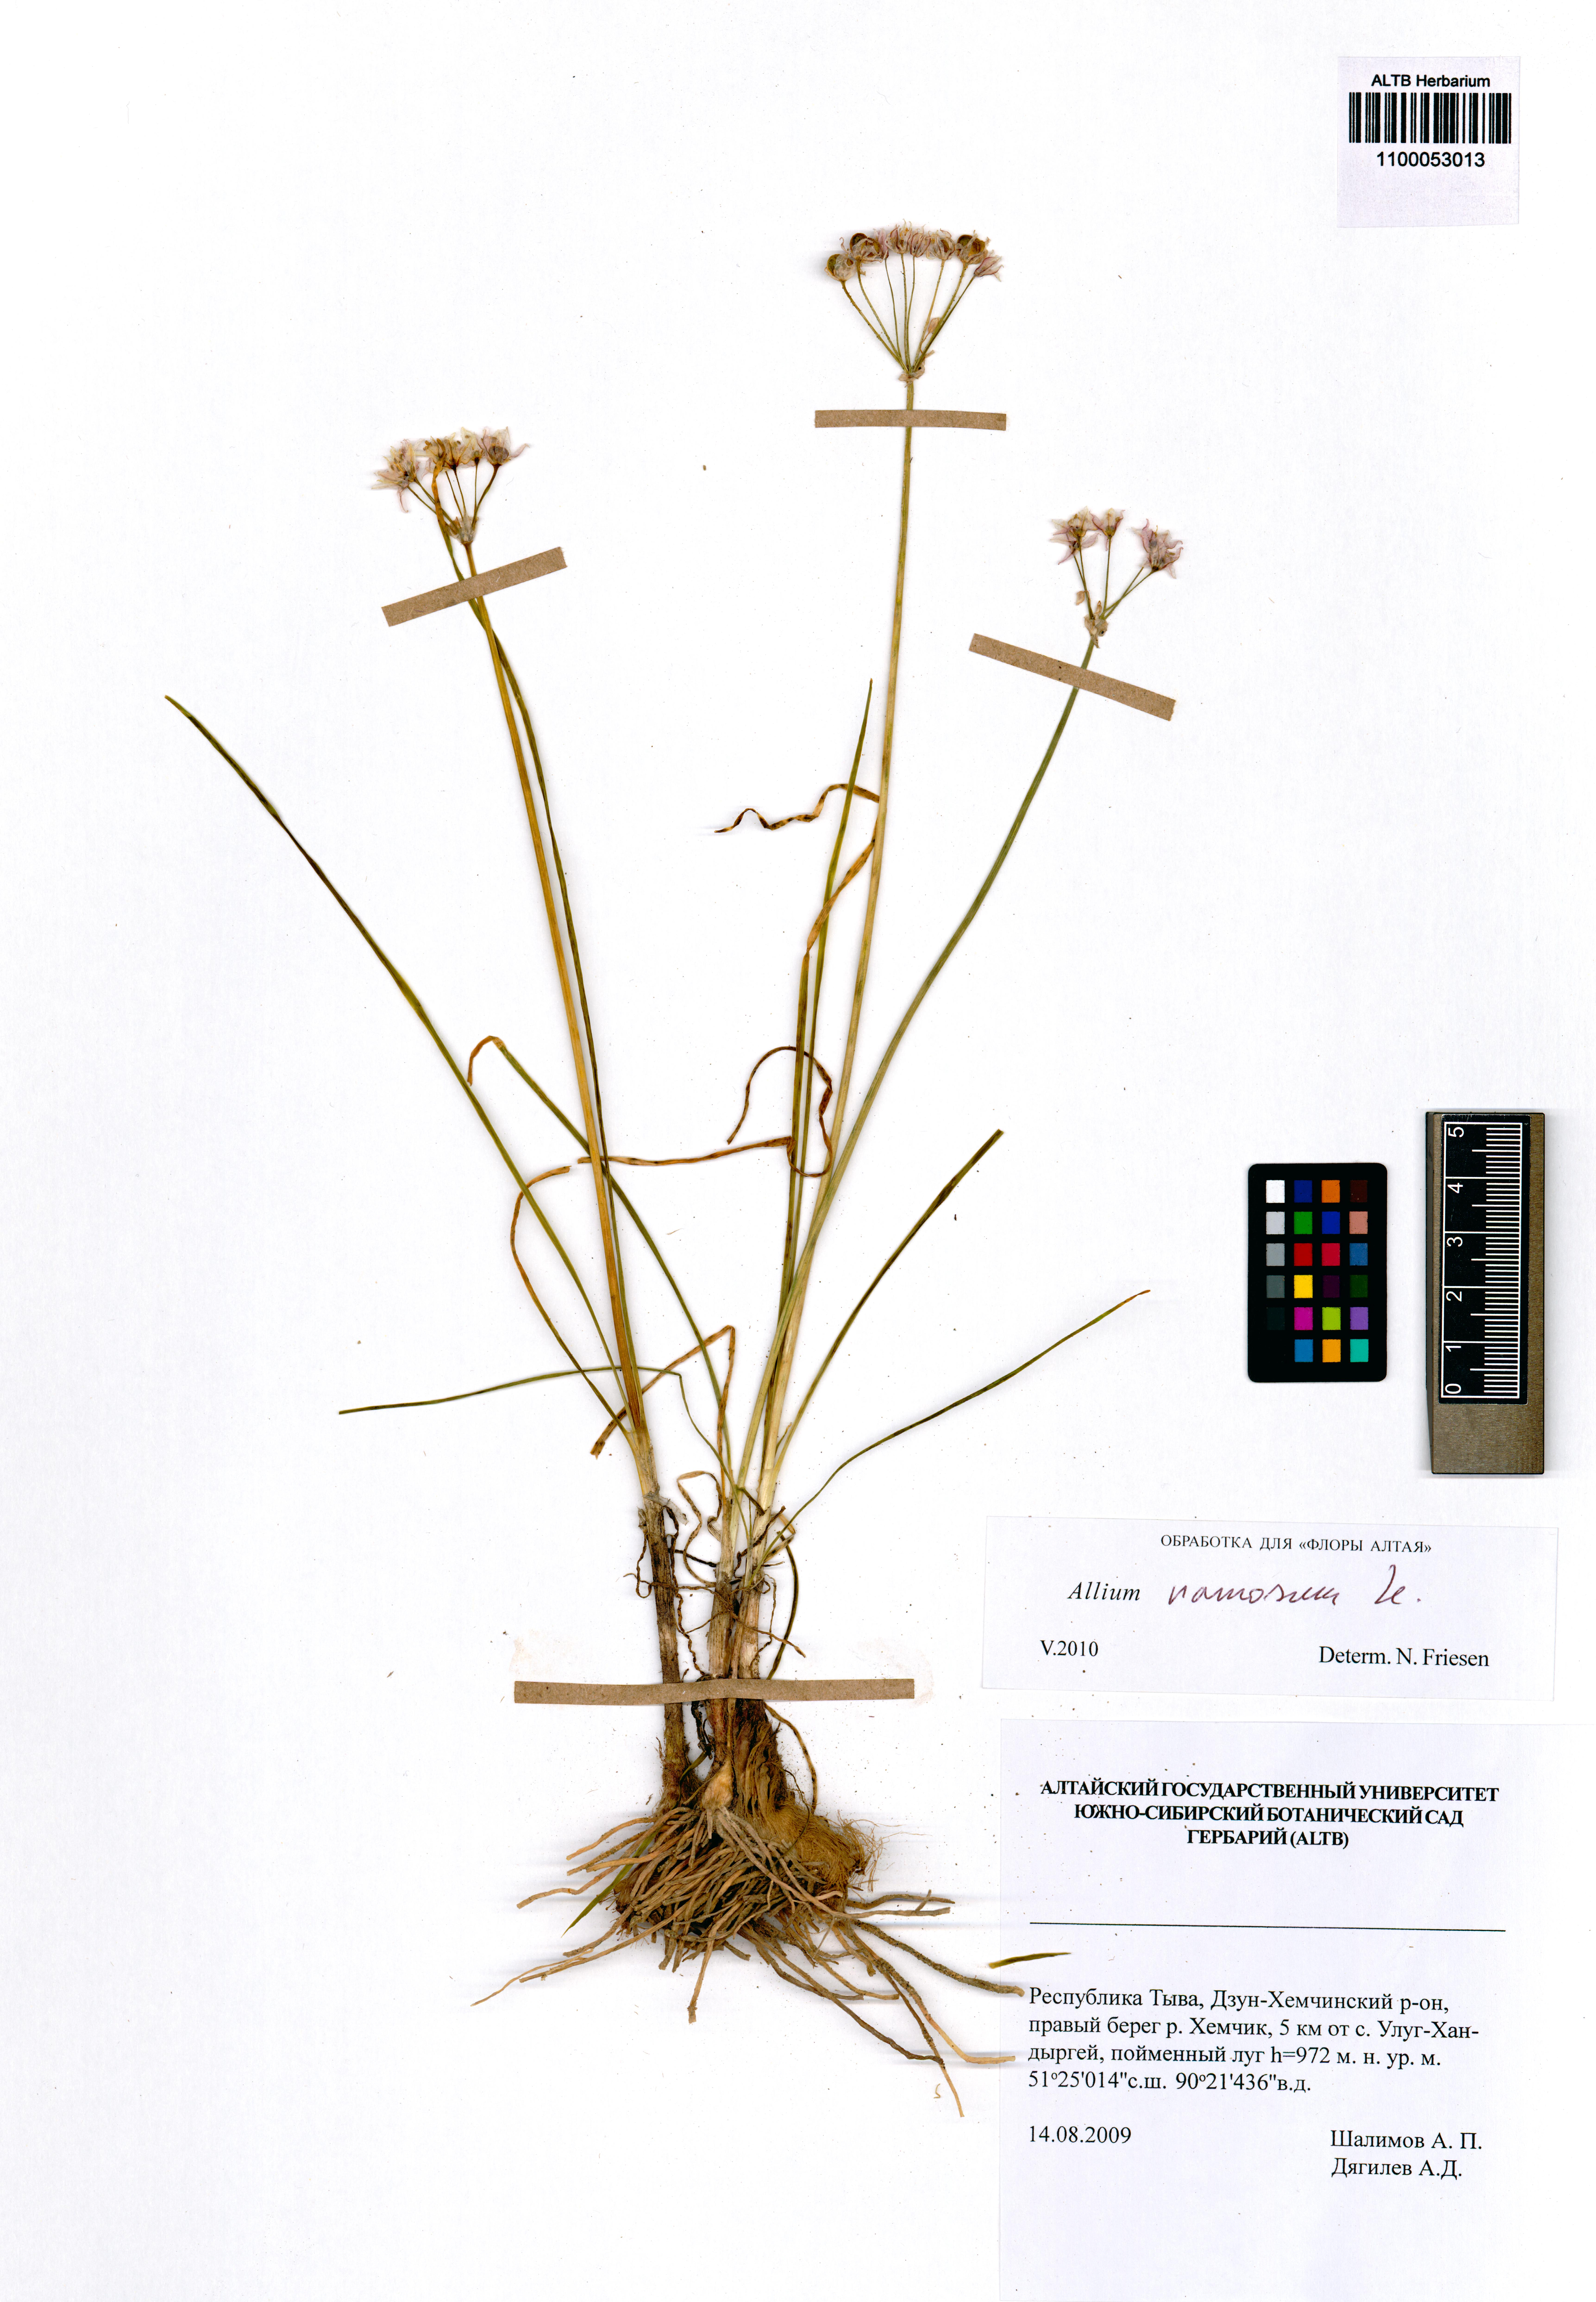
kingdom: Plantae
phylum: Tracheophyta
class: Liliopsida
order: Asparagales
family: Amaryllidaceae
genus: Allium
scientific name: Allium ramosum
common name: Fragrant garlic
